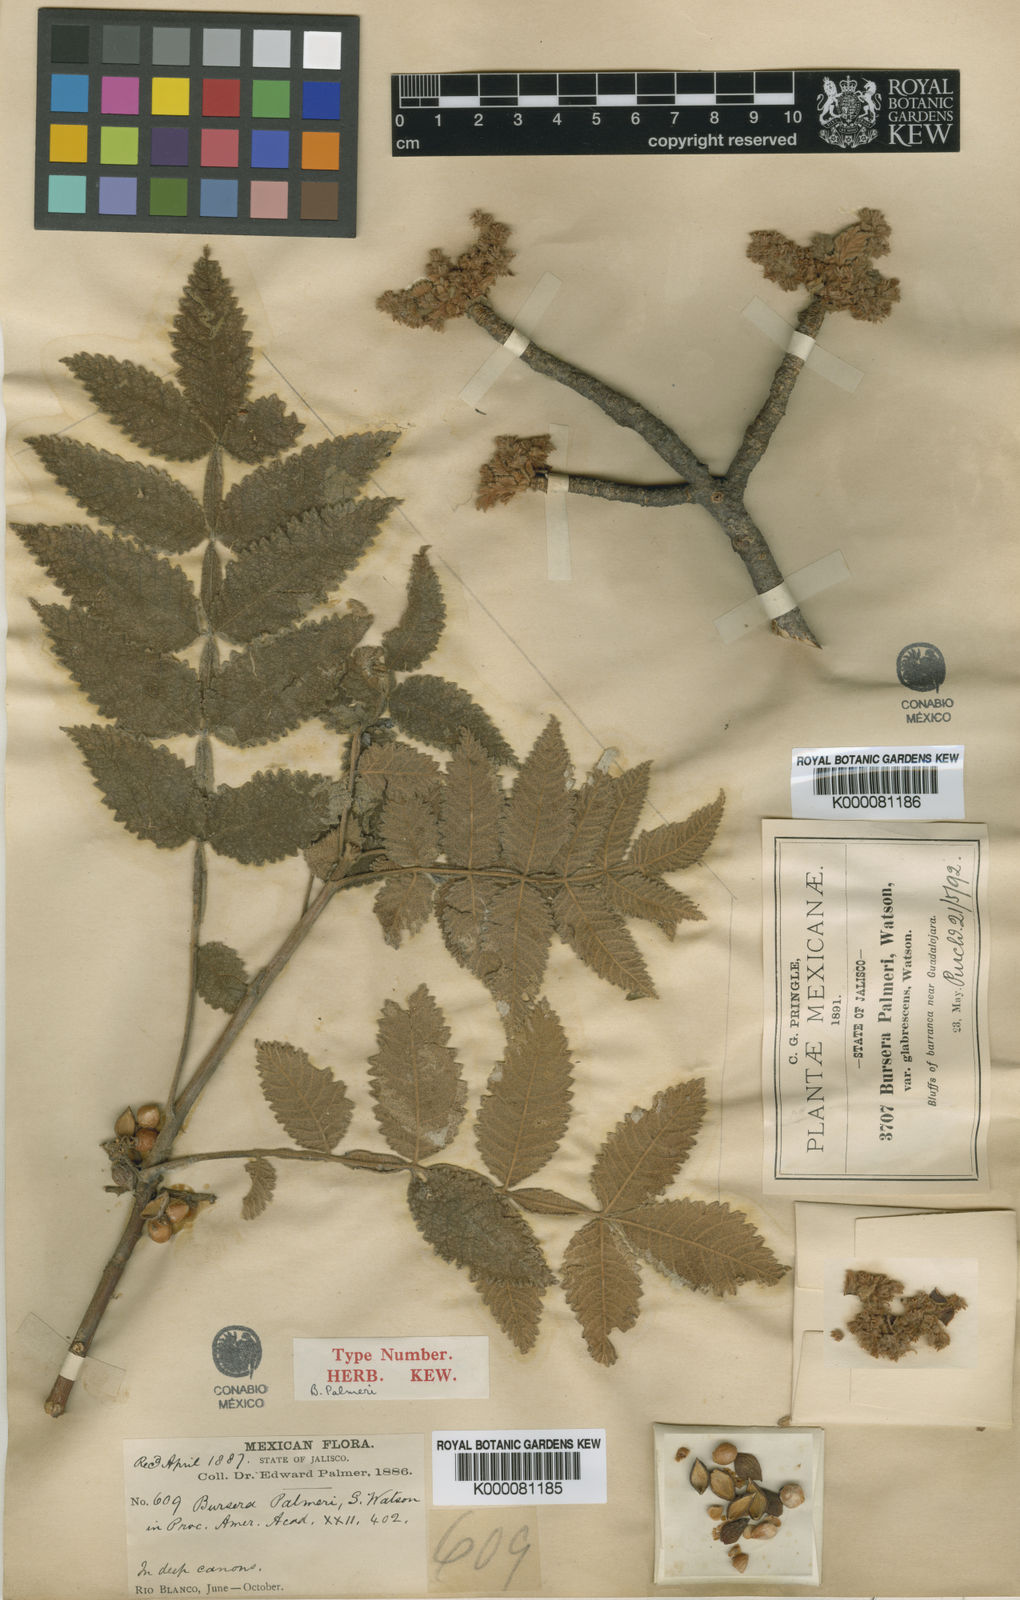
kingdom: Plantae
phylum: Tracheophyta
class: Magnoliopsida
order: Sapindales
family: Burseraceae
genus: Bursera
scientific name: Bursera palmeri
